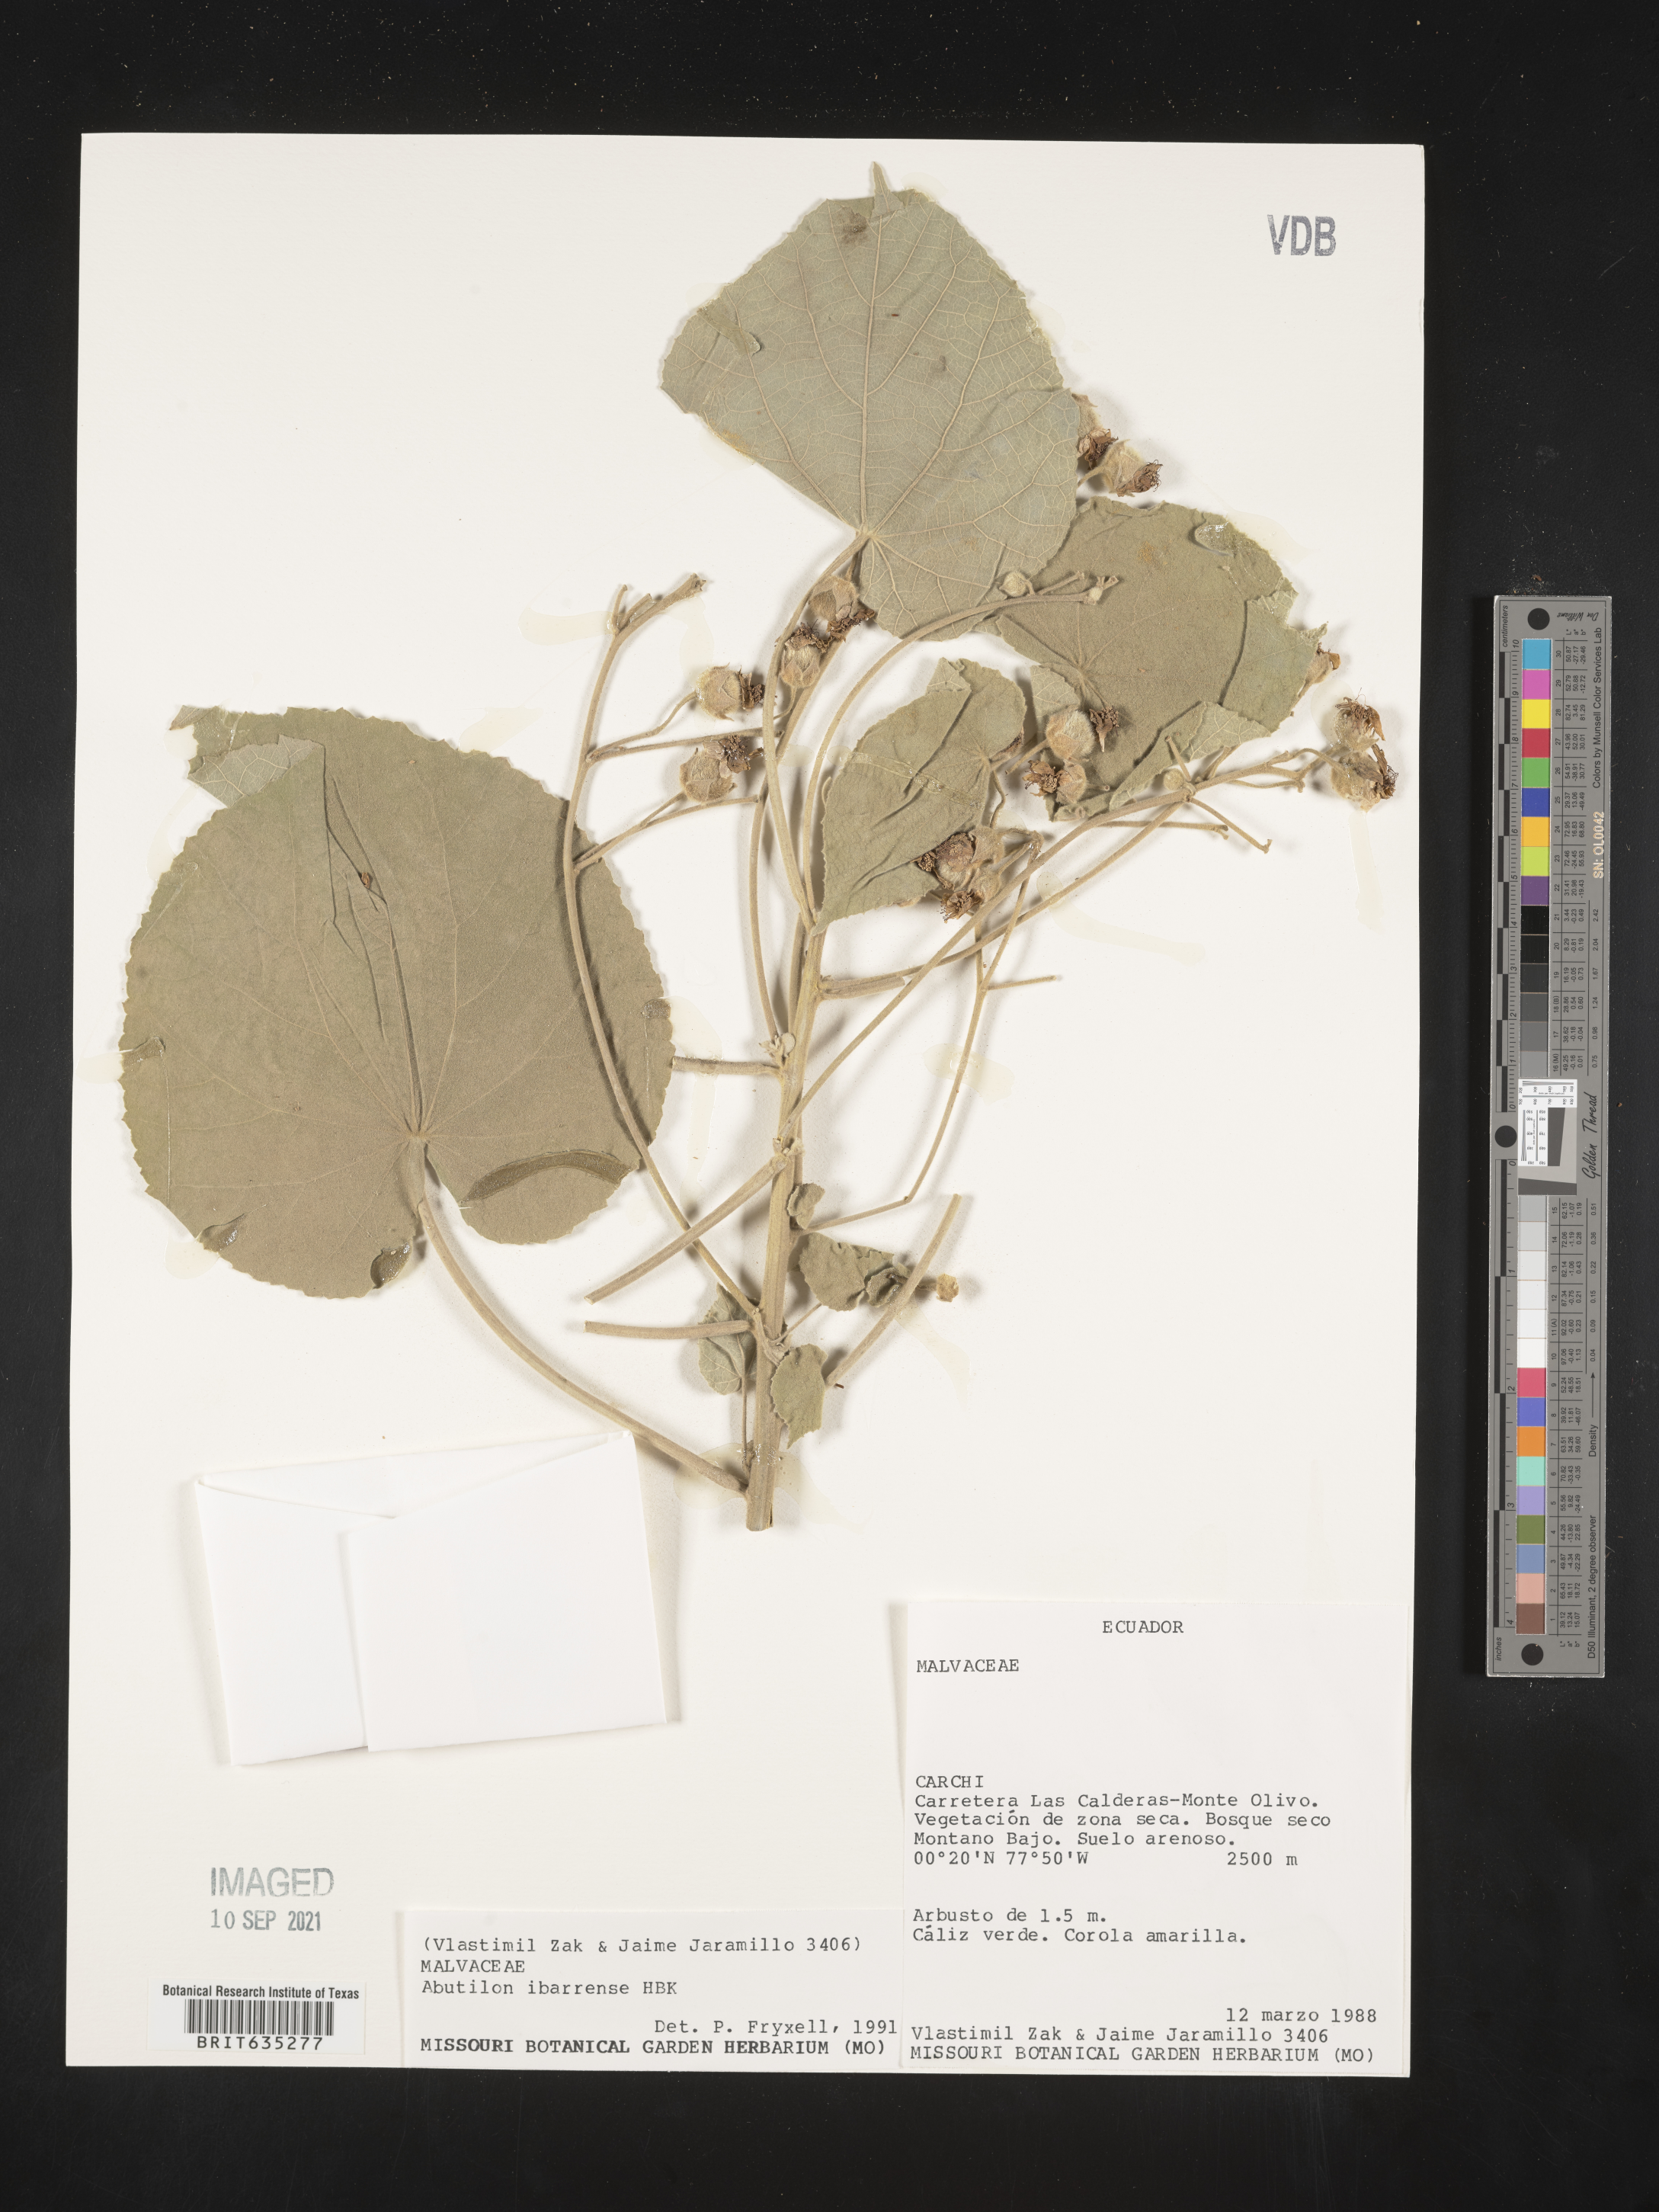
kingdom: Plantae
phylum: Tracheophyta
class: Magnoliopsida
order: Malvales
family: Malvaceae
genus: Abutilon
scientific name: Abutilon
